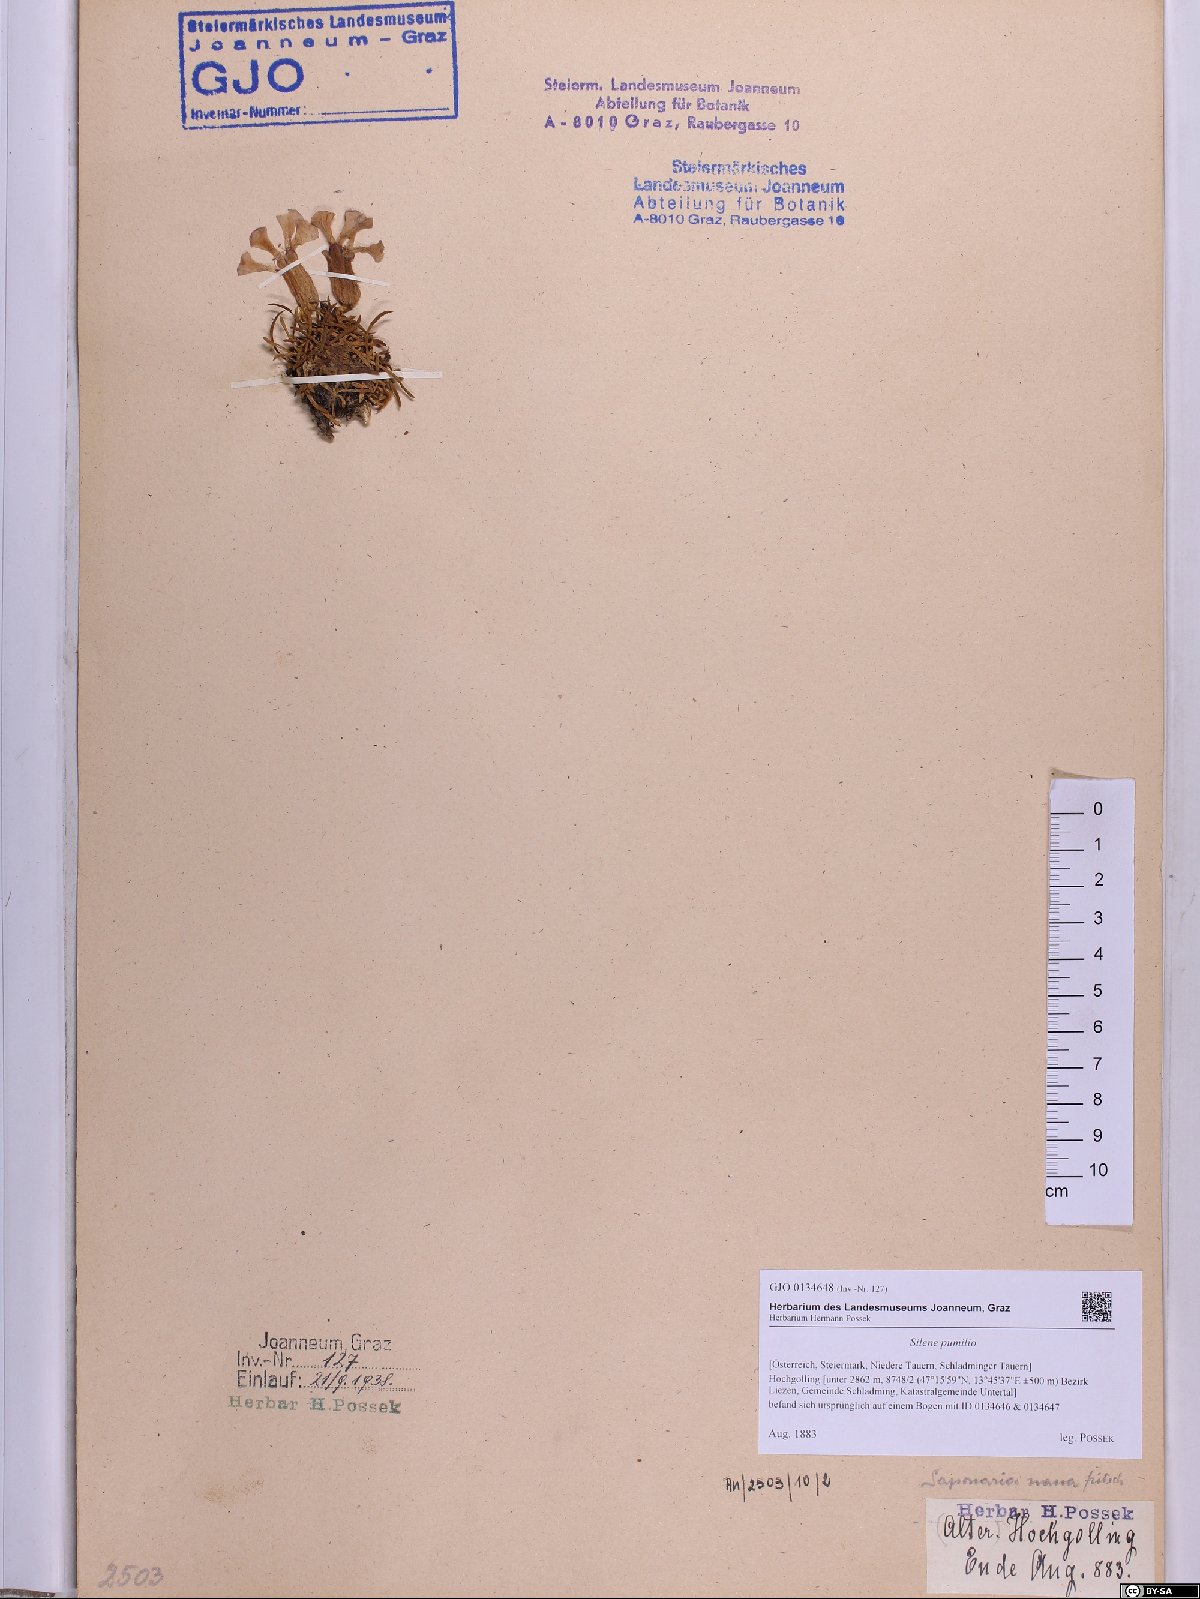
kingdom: Plantae
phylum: Tracheophyta
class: Magnoliopsida
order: Caryophyllales
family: Caryophyllaceae
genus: Saponaria
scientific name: Saponaria pumila
